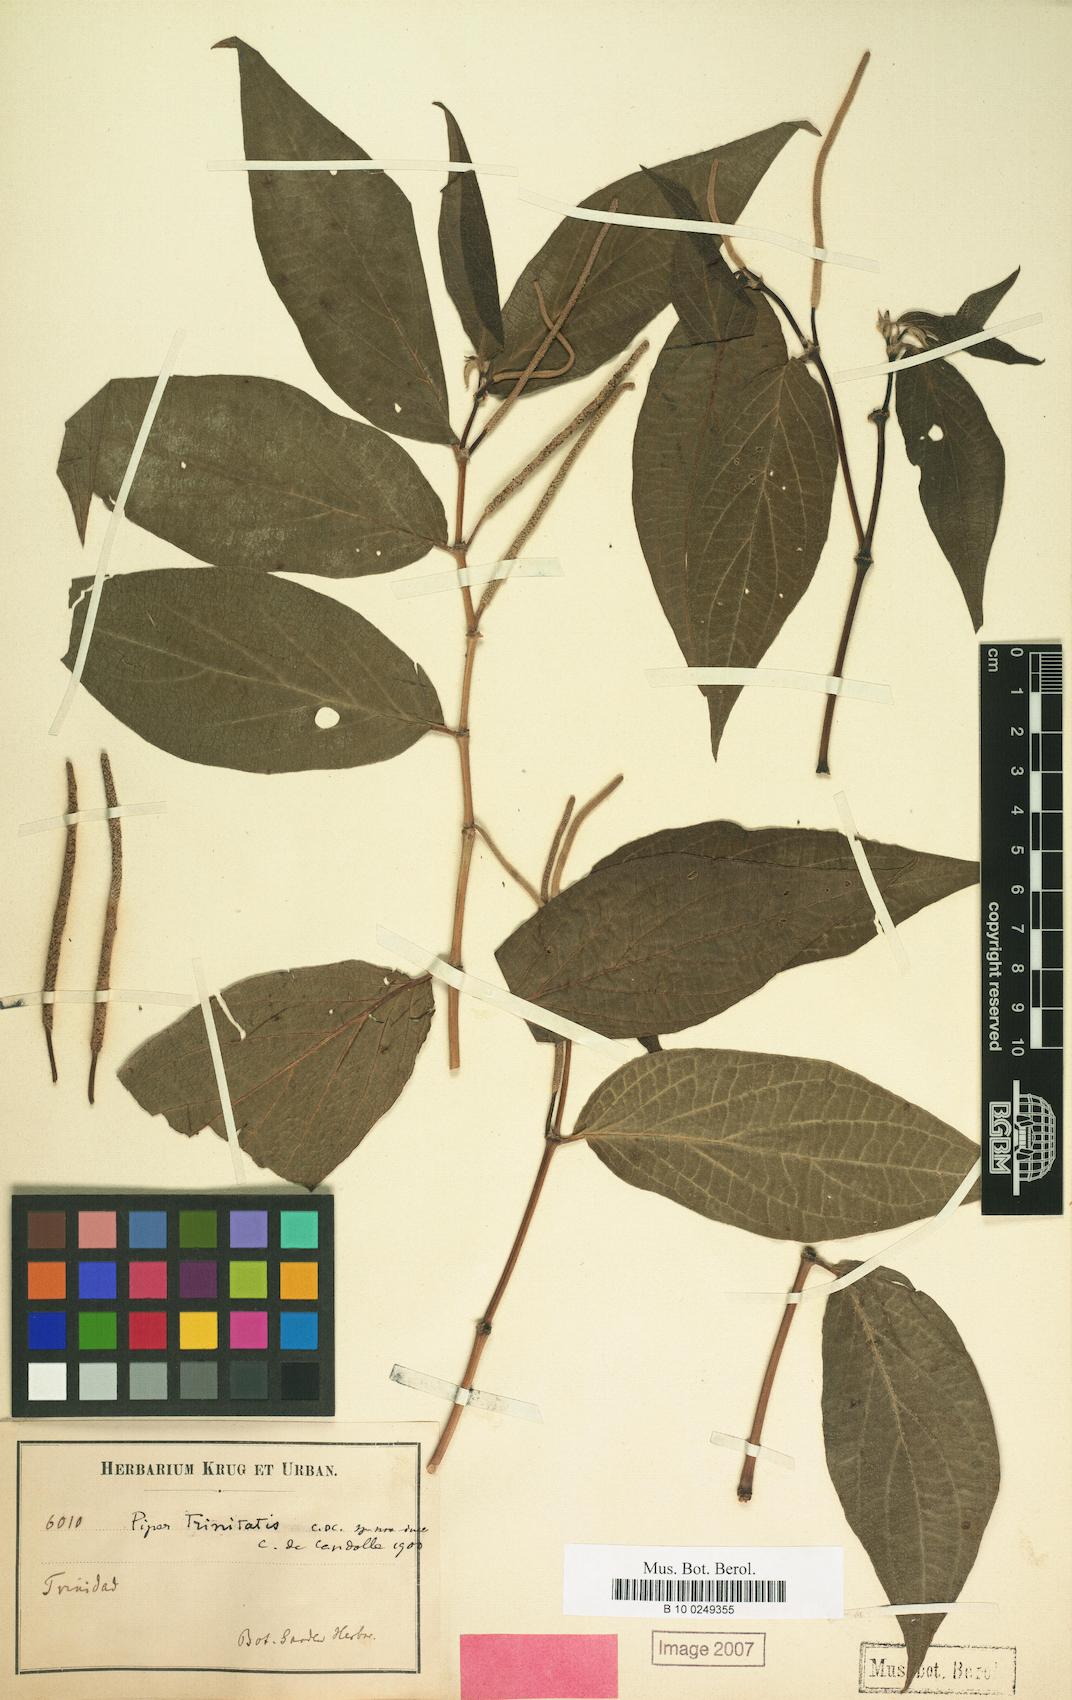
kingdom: Plantae
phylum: Tracheophyta
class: Magnoliopsida
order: Piperales
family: Piperaceae
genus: Piper
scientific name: Piper dilatatum
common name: Higuillo
